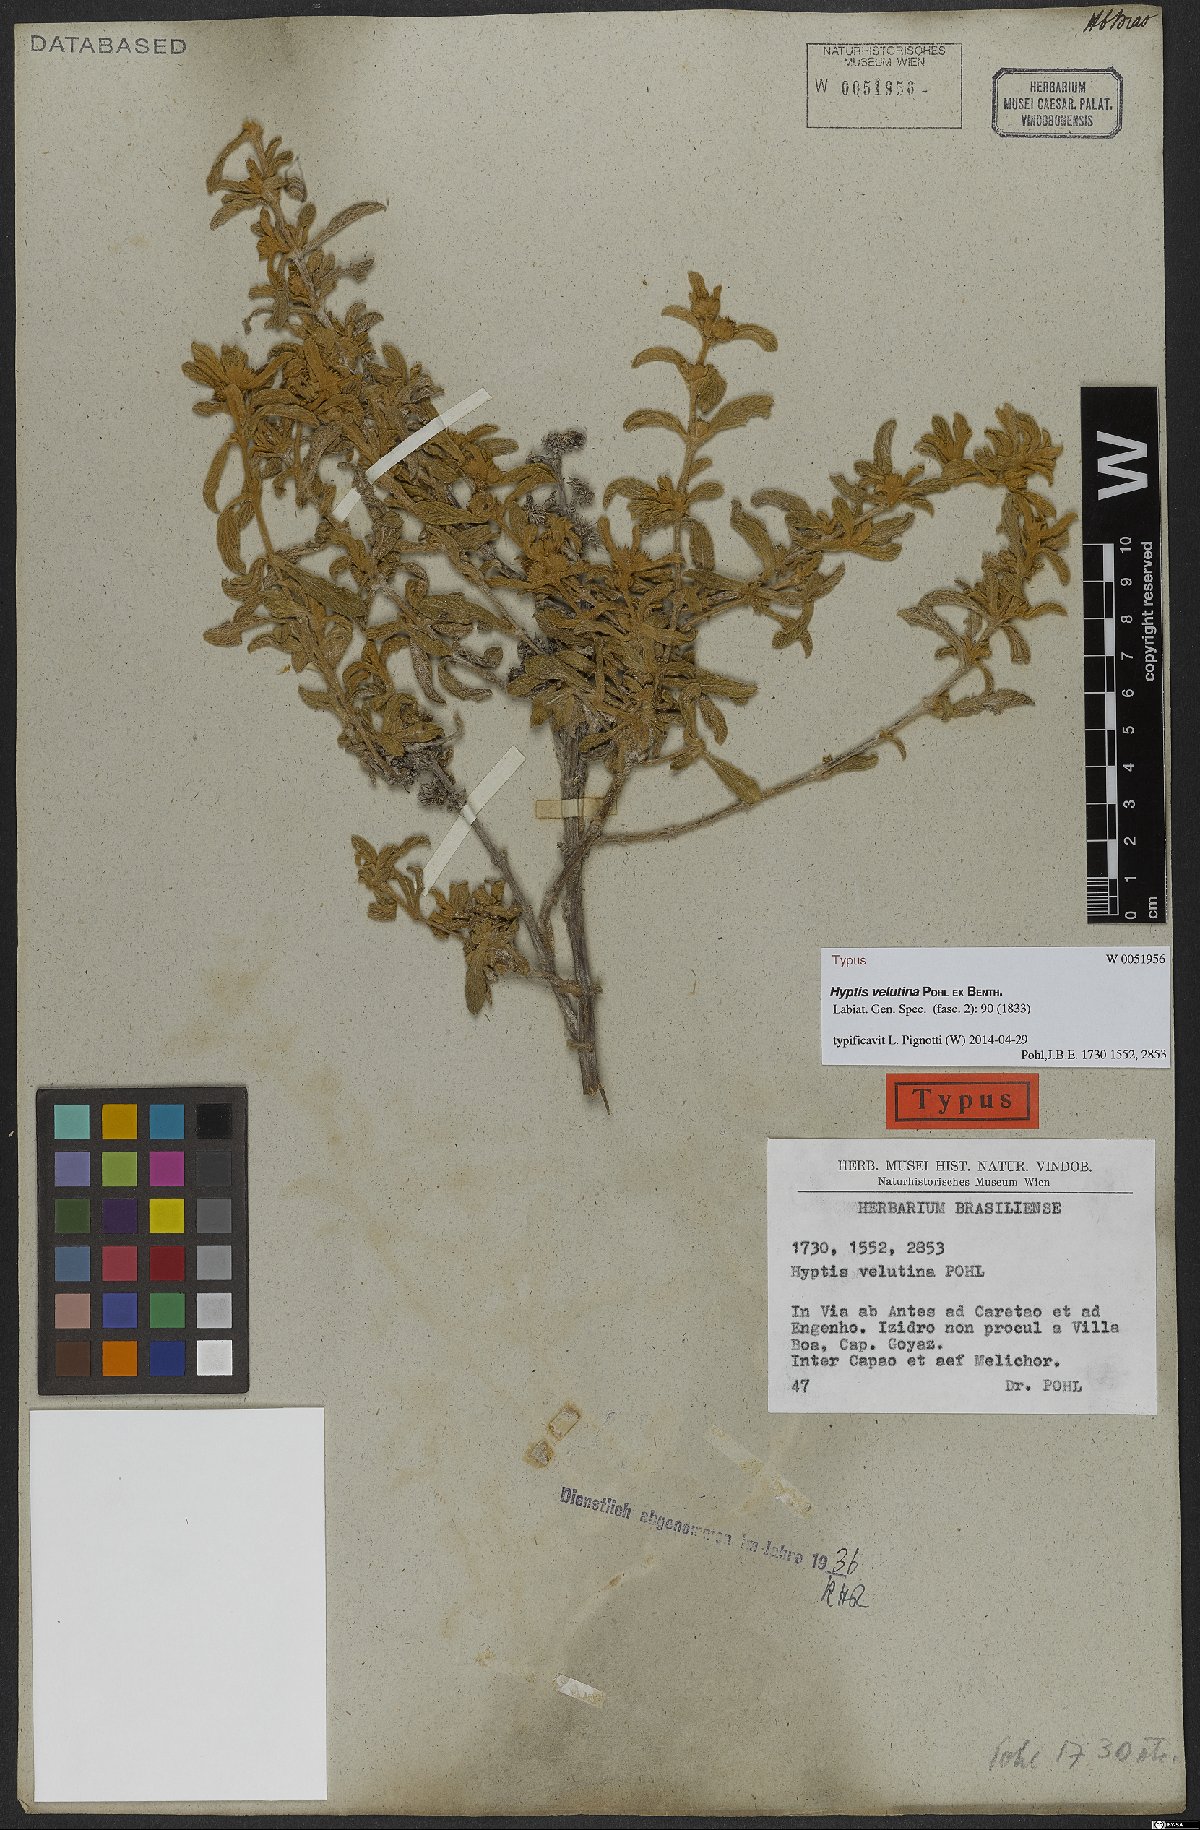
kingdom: Plantae
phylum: Tracheophyta
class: Magnoliopsida
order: Lamiales
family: Lamiaceae
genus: Hyptis
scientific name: Hyptis velutina
